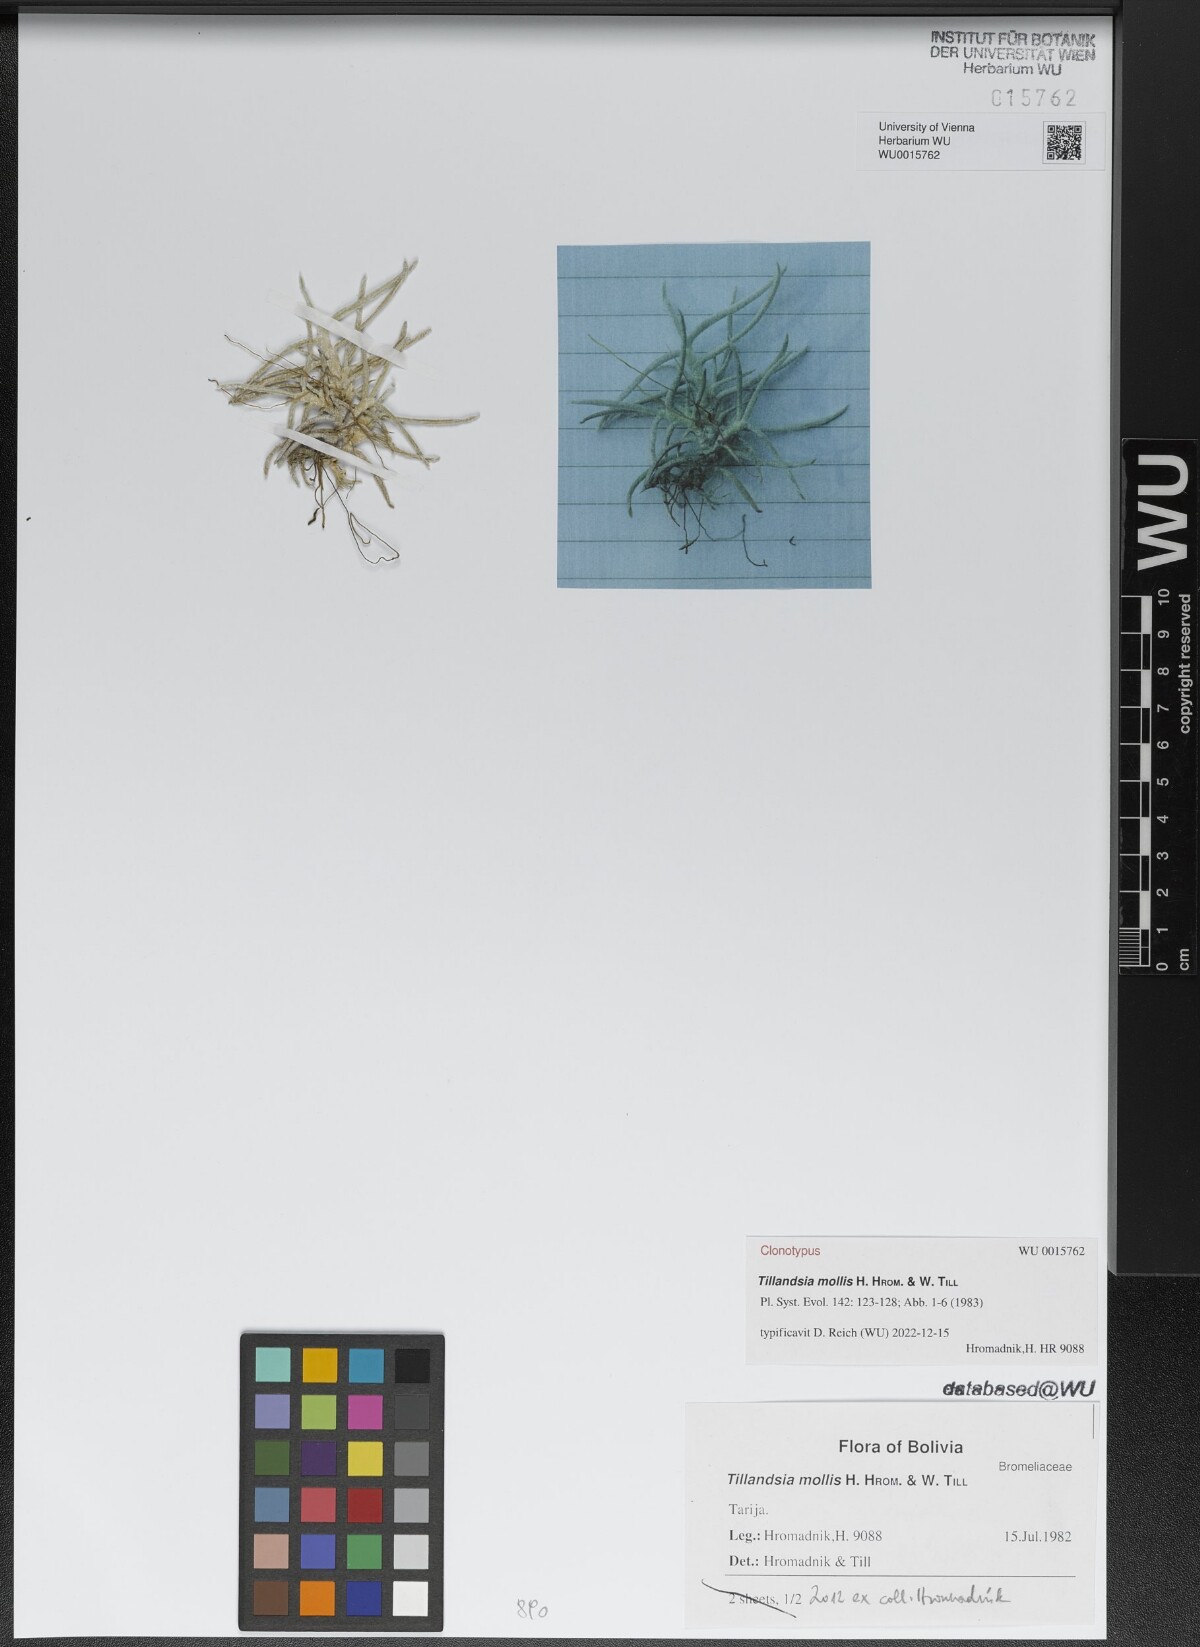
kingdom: Plantae
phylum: Tracheophyta
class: Liliopsida
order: Poales
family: Bromeliaceae
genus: Tillandsia
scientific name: Tillandsia mollis
